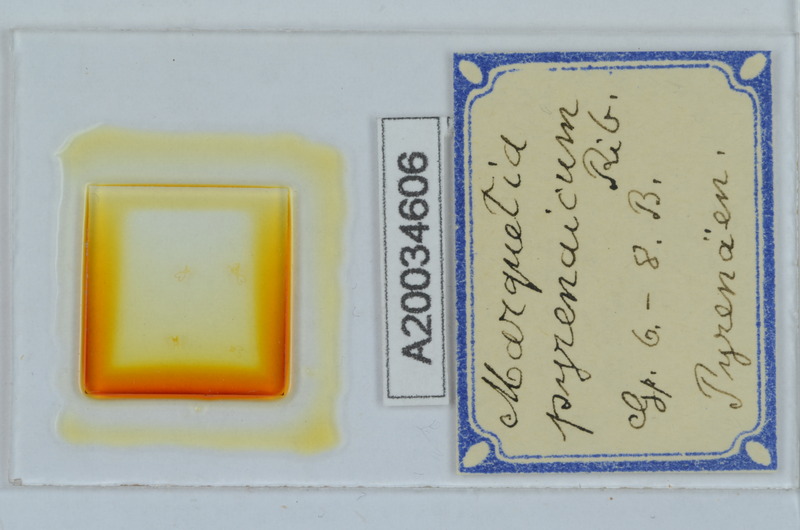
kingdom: Animalia
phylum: Arthropoda
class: Diplopoda
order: Chordeumatida
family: Opisthocheiridae
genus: Marquetia
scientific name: Marquetia pyrenaicum
